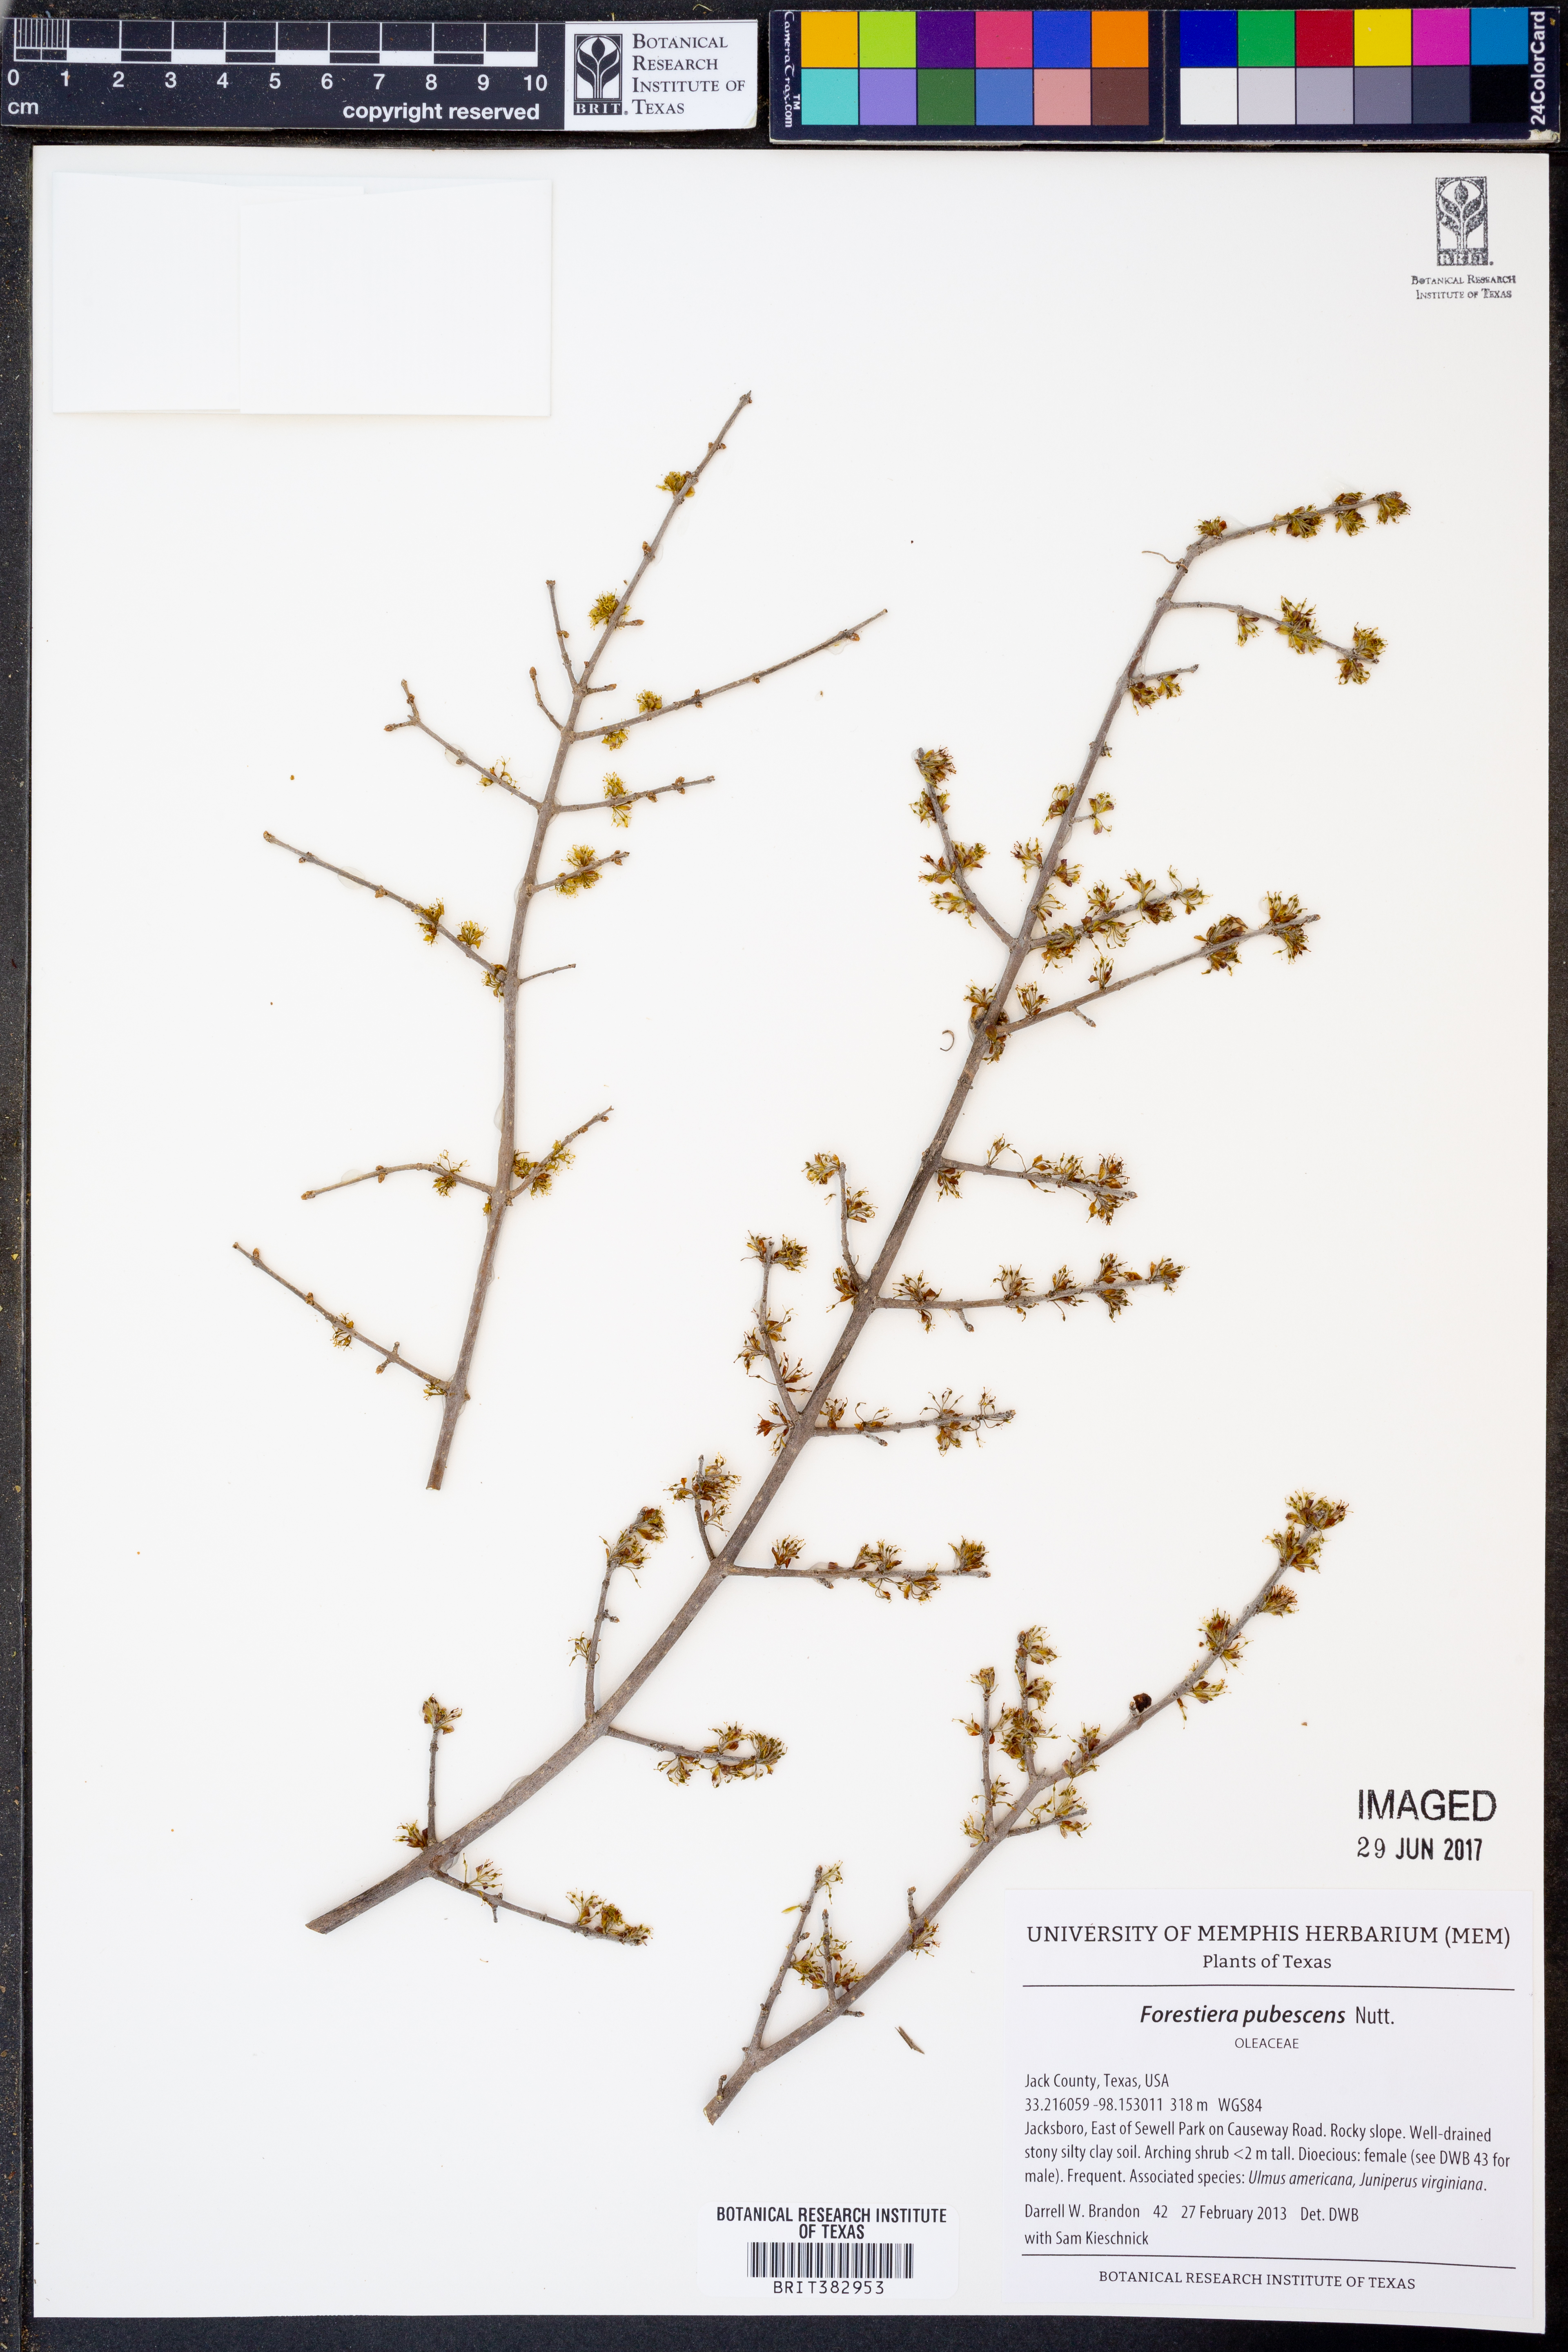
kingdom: Plantae
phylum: Tracheophyta
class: Magnoliopsida
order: Lamiales
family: Oleaceae
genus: Forestiera
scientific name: Forestiera pubescens
